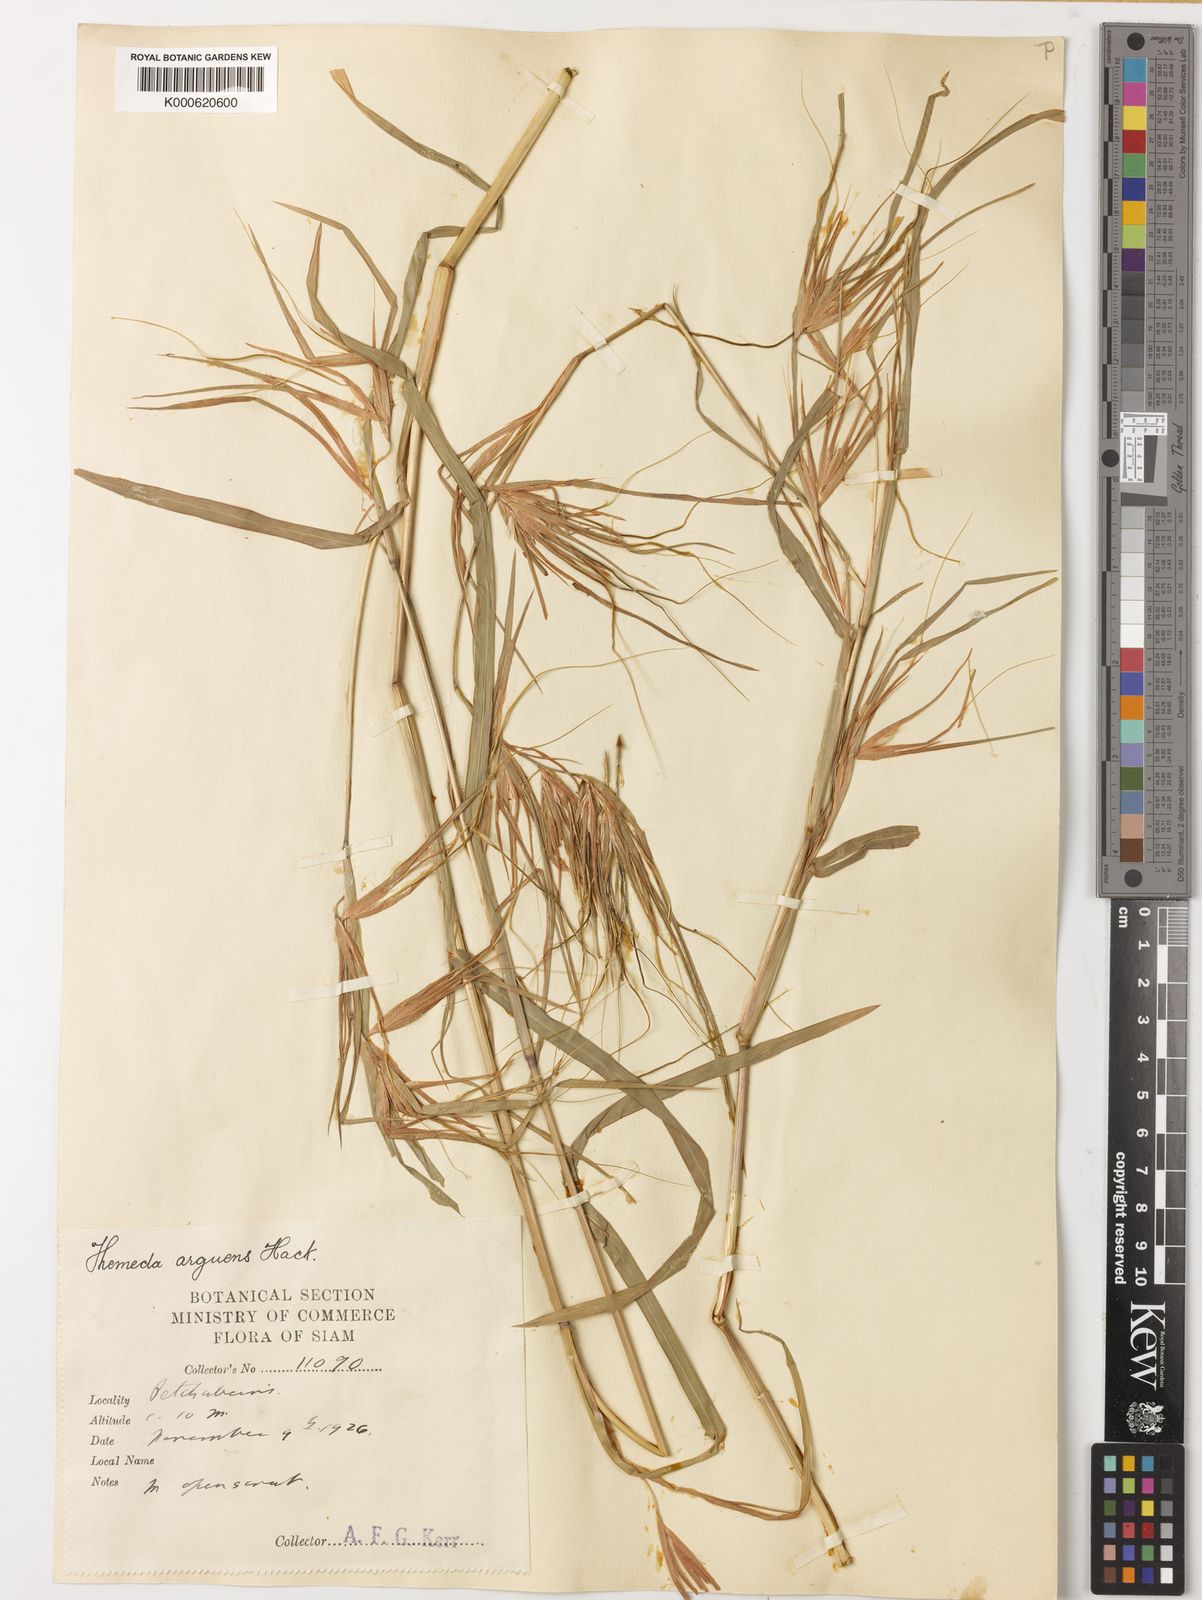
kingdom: Plantae
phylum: Tracheophyta
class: Liliopsida
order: Poales
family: Poaceae
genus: Themeda
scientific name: Themeda arguens
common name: Christmas grass
